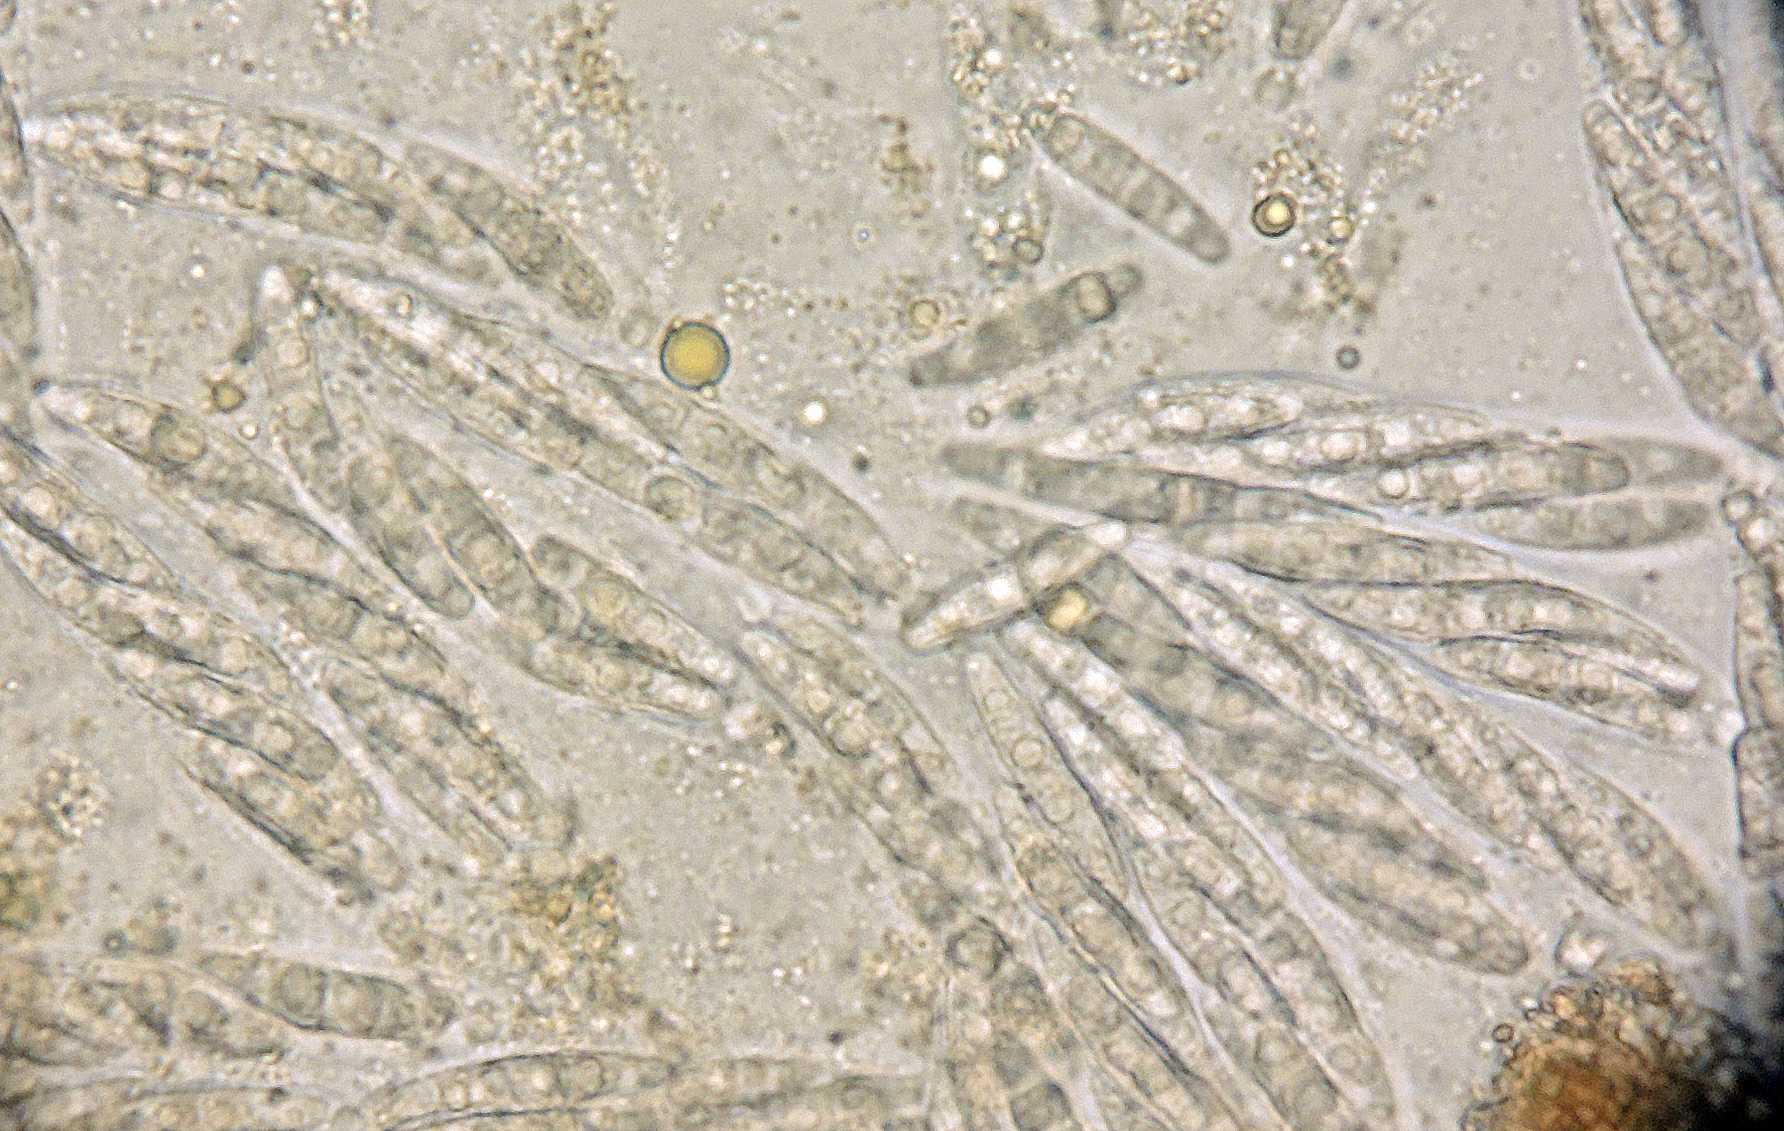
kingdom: Fungi
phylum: Ascomycota
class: Sordariomycetes
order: Diaporthales
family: Valsaceae
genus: Hypospilina
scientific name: Hypospilina pustula
